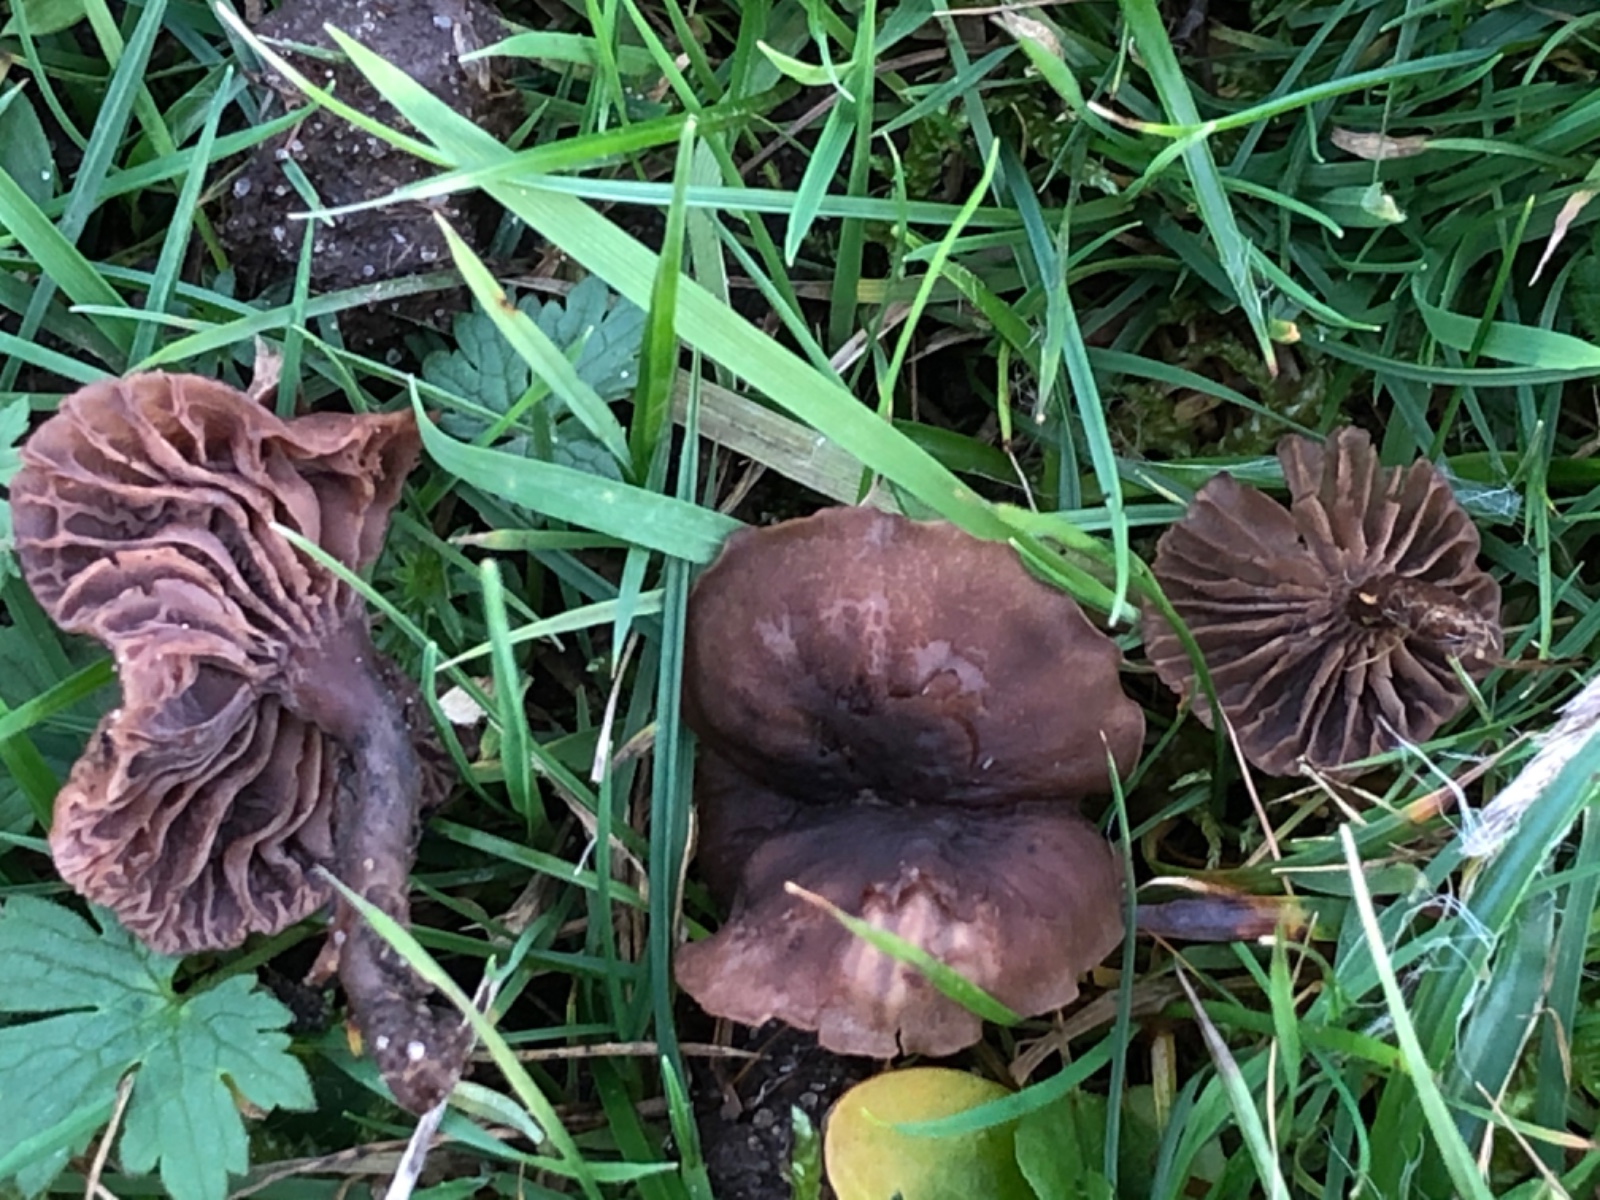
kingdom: Fungi
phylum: Basidiomycota
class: Agaricomycetes
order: Agaricales
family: Clavariaceae
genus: Hodophilus
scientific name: Hodophilus
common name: kratvokshat
